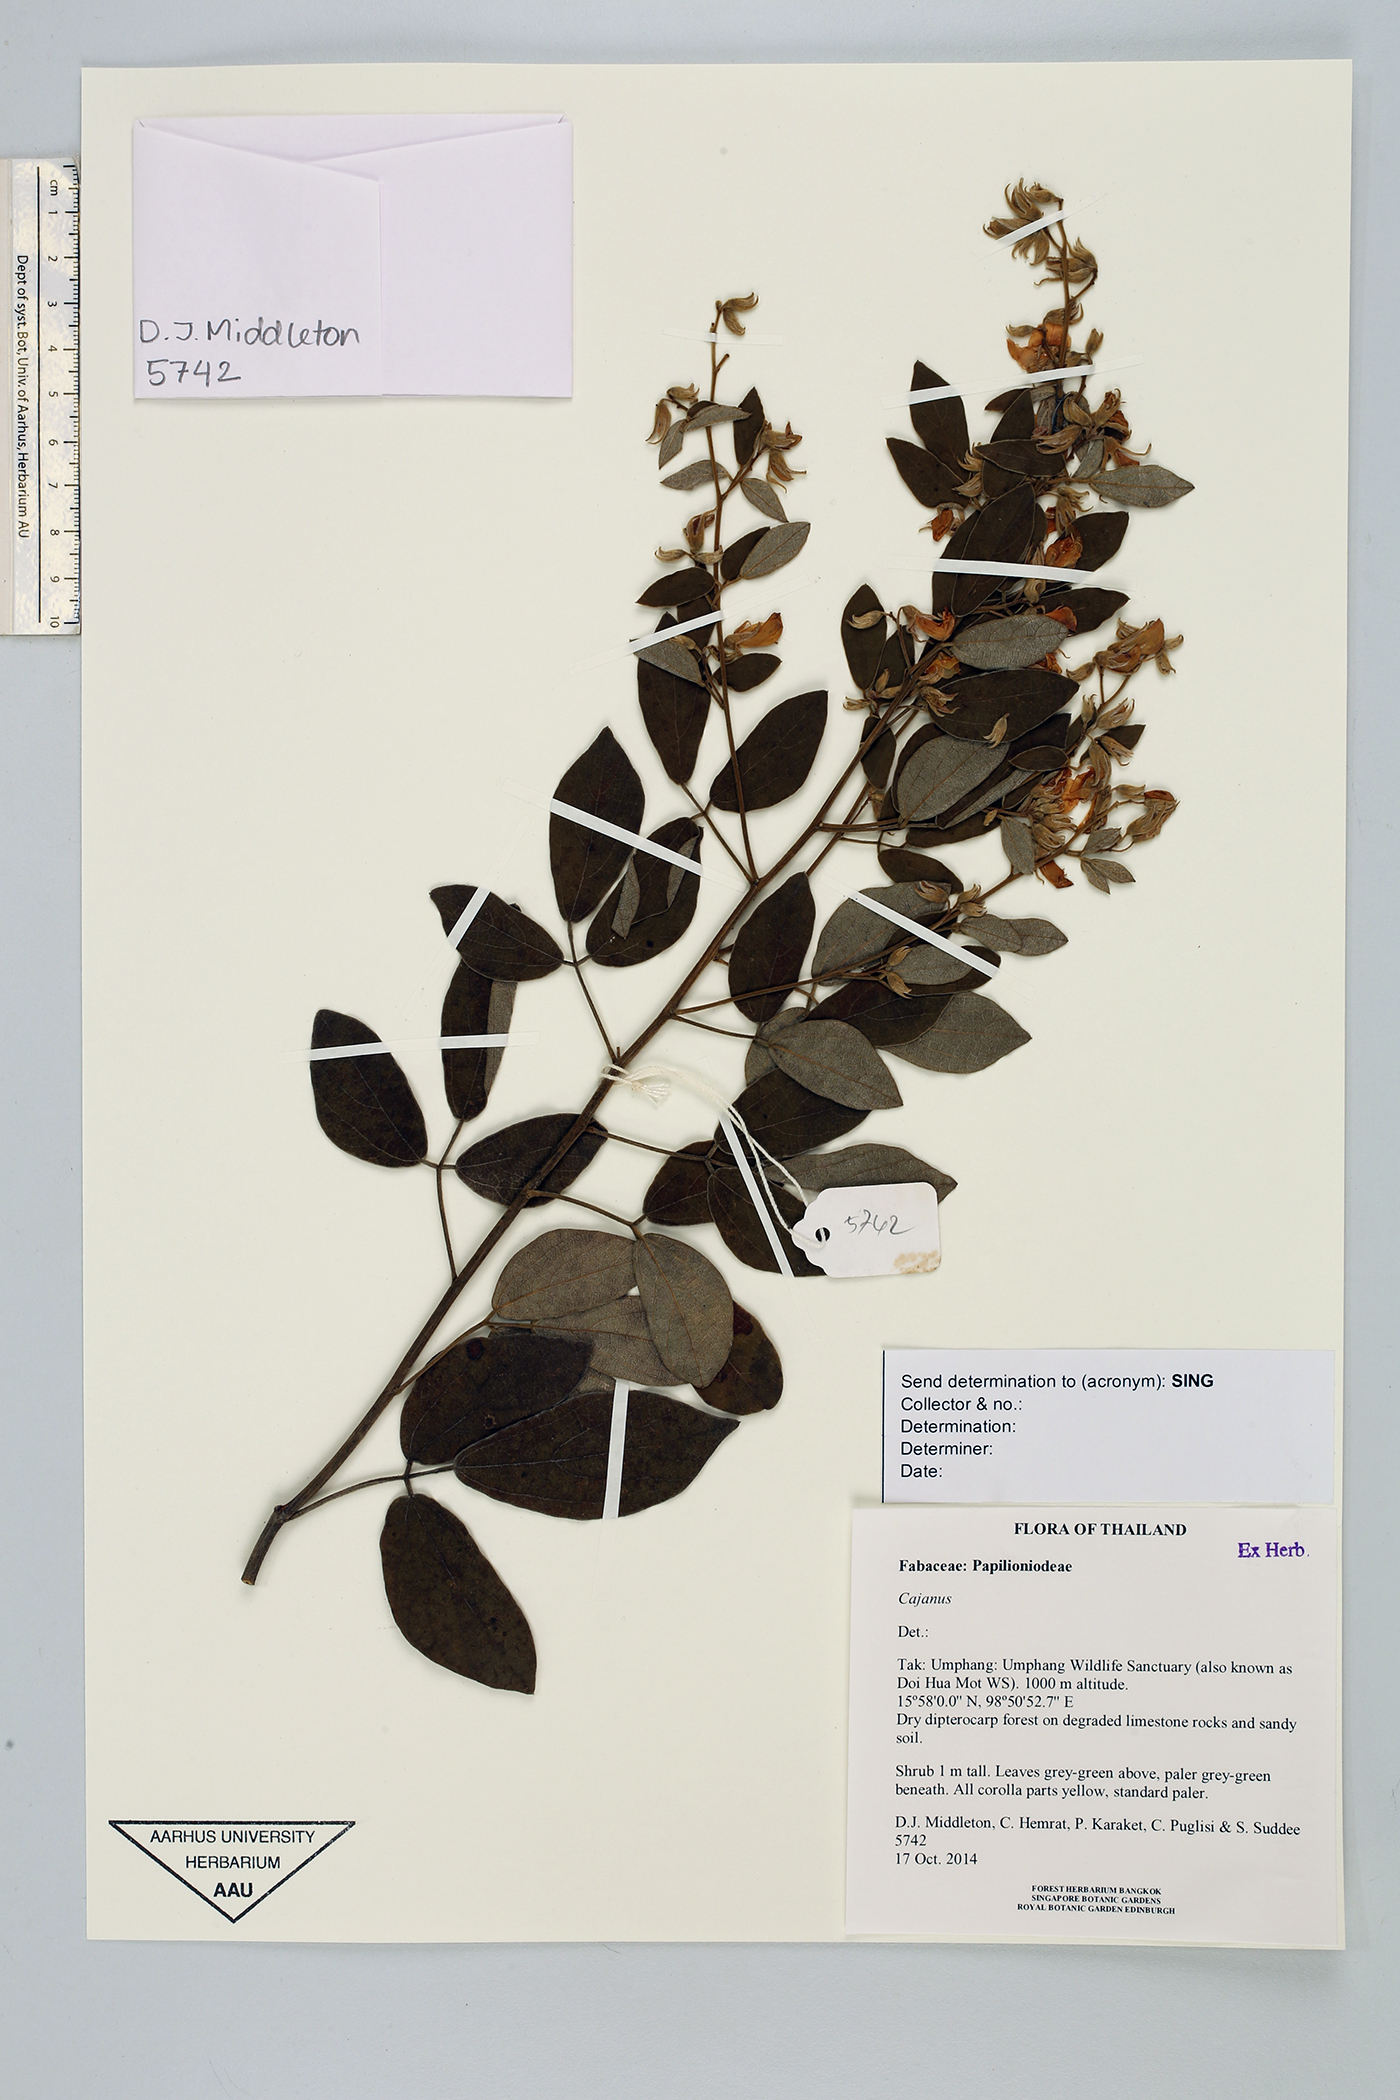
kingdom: Plantae
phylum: Tracheophyta
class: Magnoliopsida
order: Fabales
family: Fabaceae
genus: Cajanus
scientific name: Cajanus
